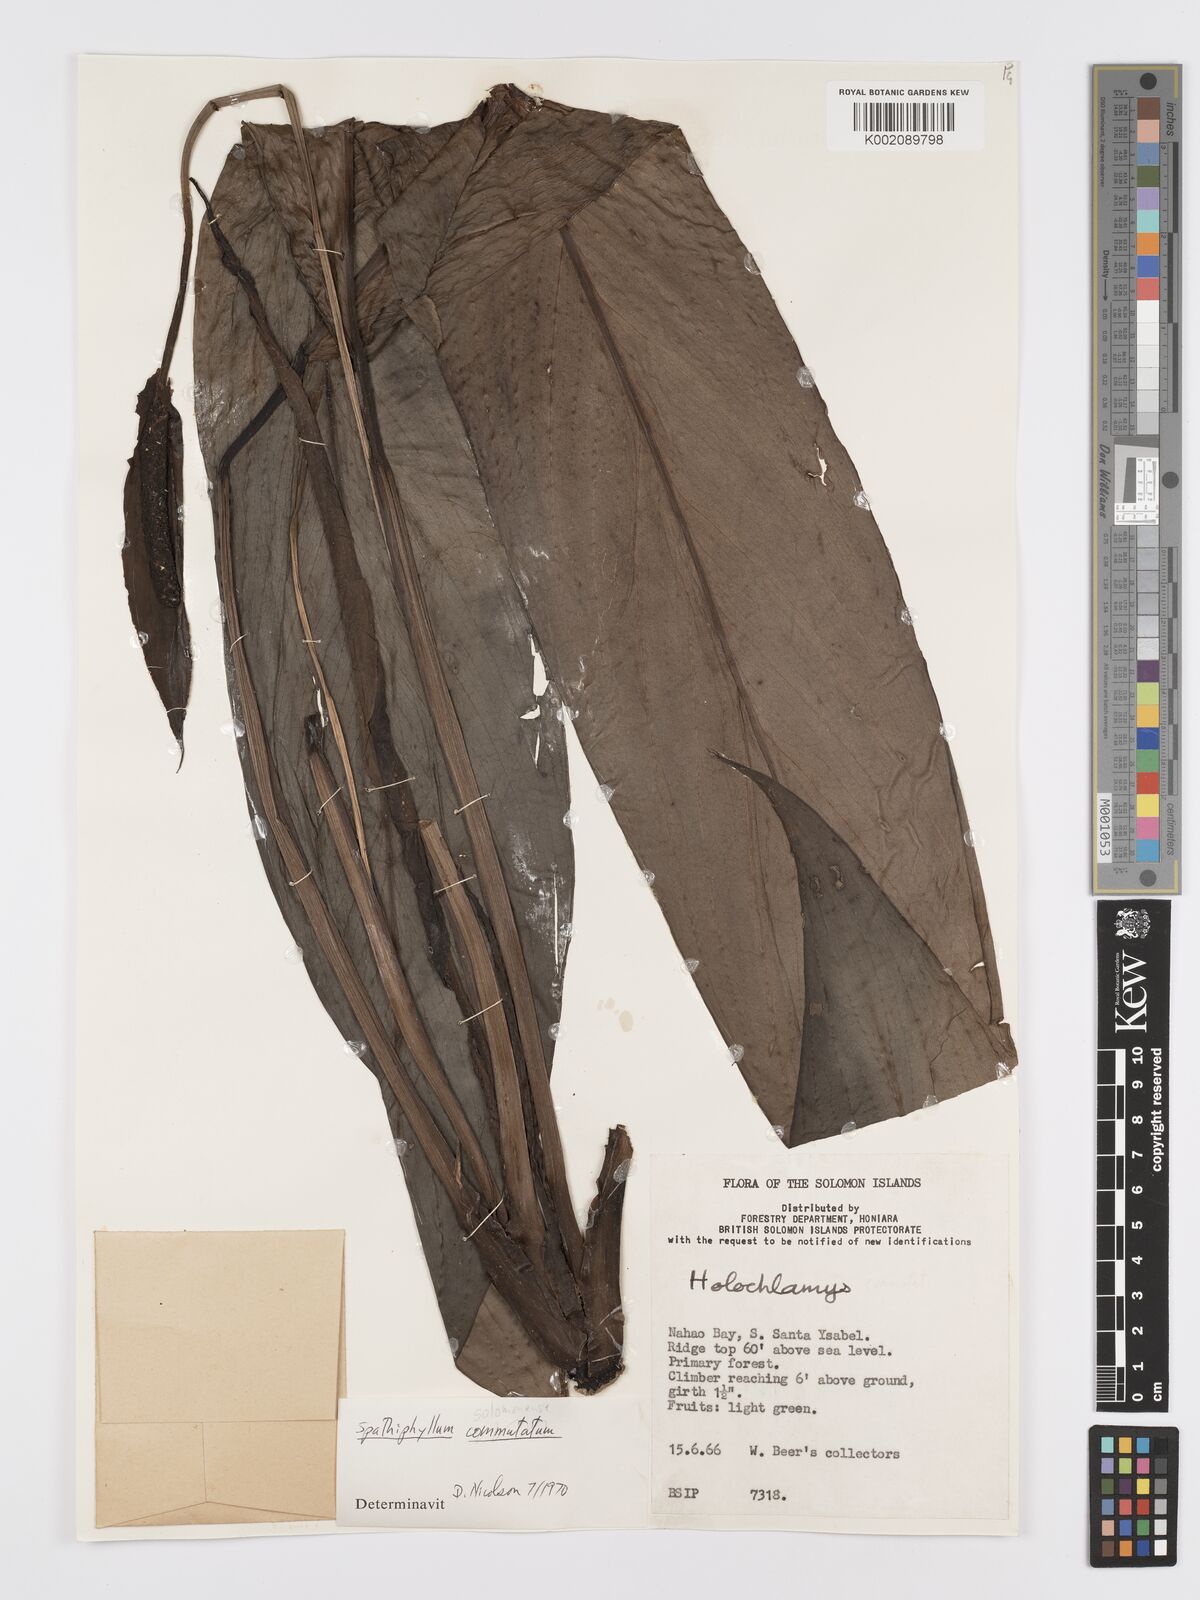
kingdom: Plantae
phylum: Tracheophyta
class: Liliopsida
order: Alismatales
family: Araceae
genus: Spathiphyllum
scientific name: Spathiphyllum solomonense
